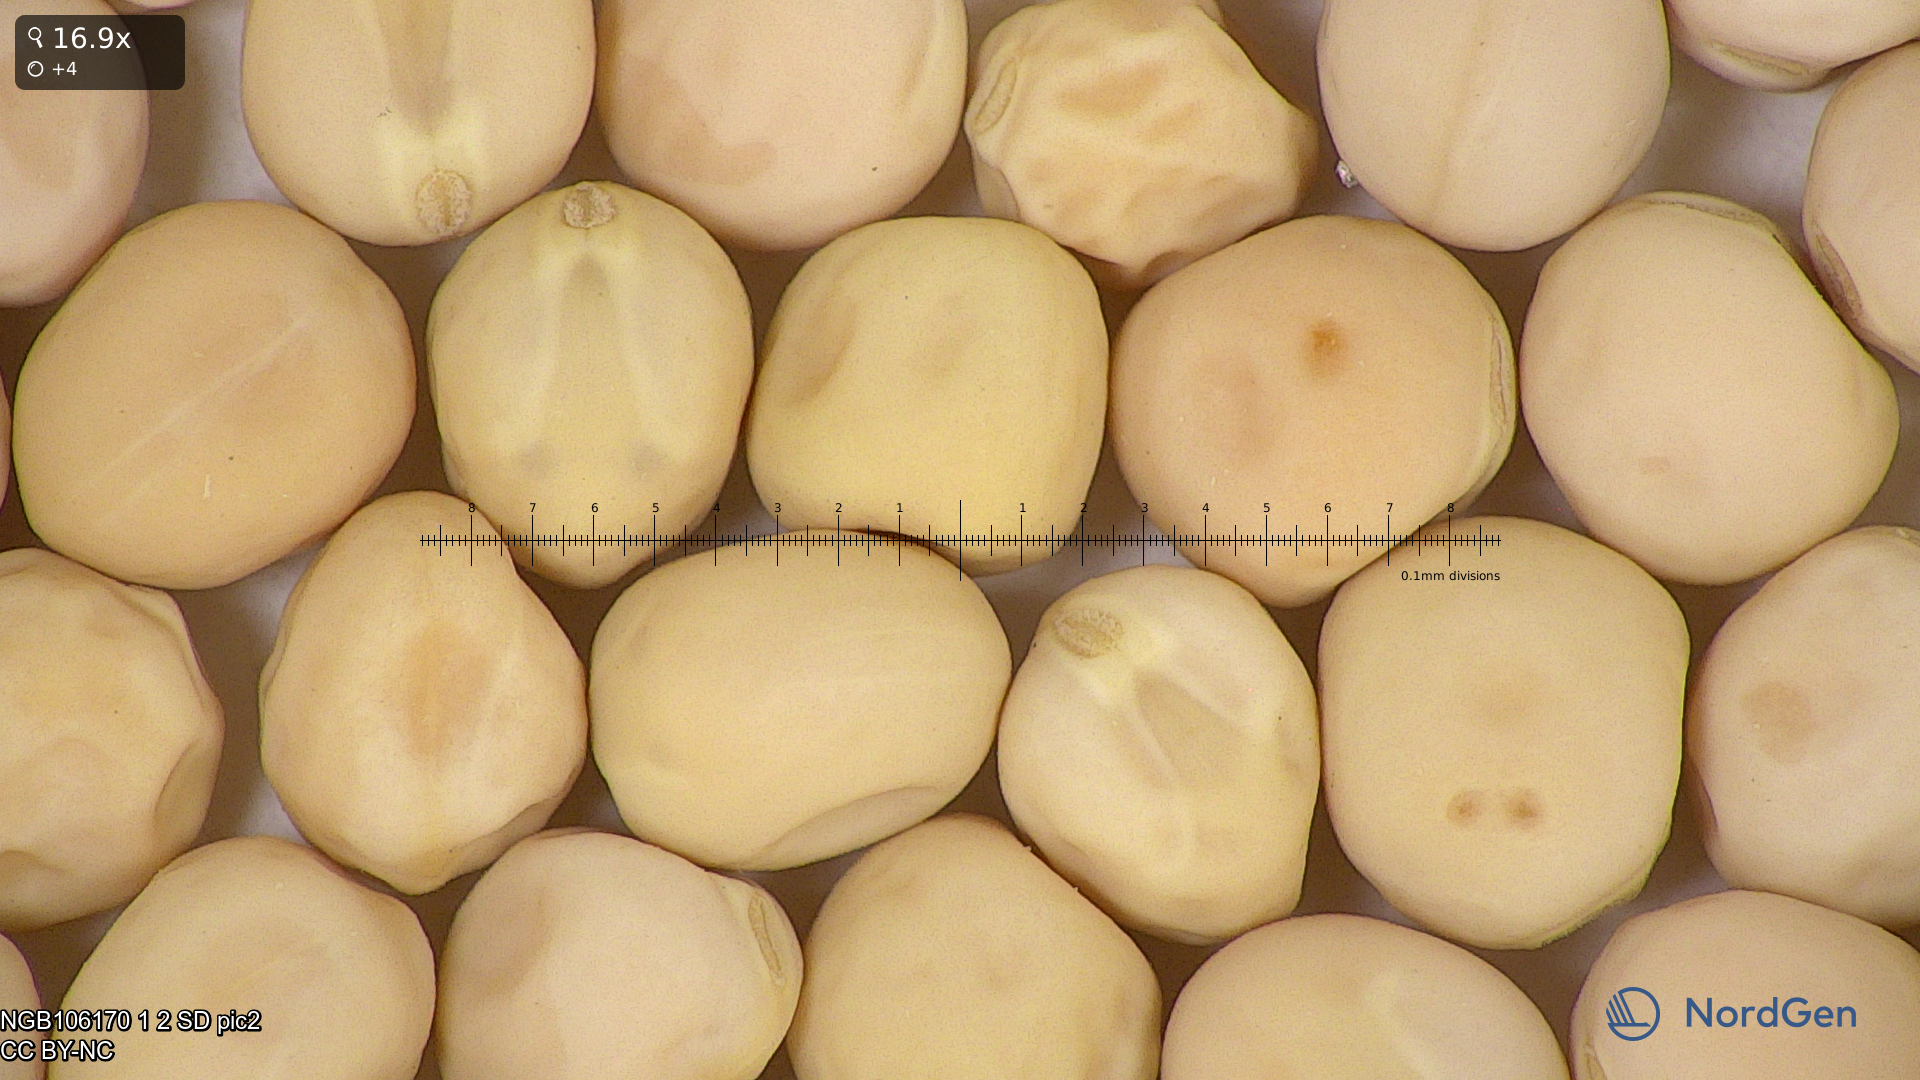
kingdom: Plantae
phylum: Tracheophyta
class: Magnoliopsida
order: Fabales
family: Fabaceae
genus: Lathyrus
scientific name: Lathyrus oleraceus
